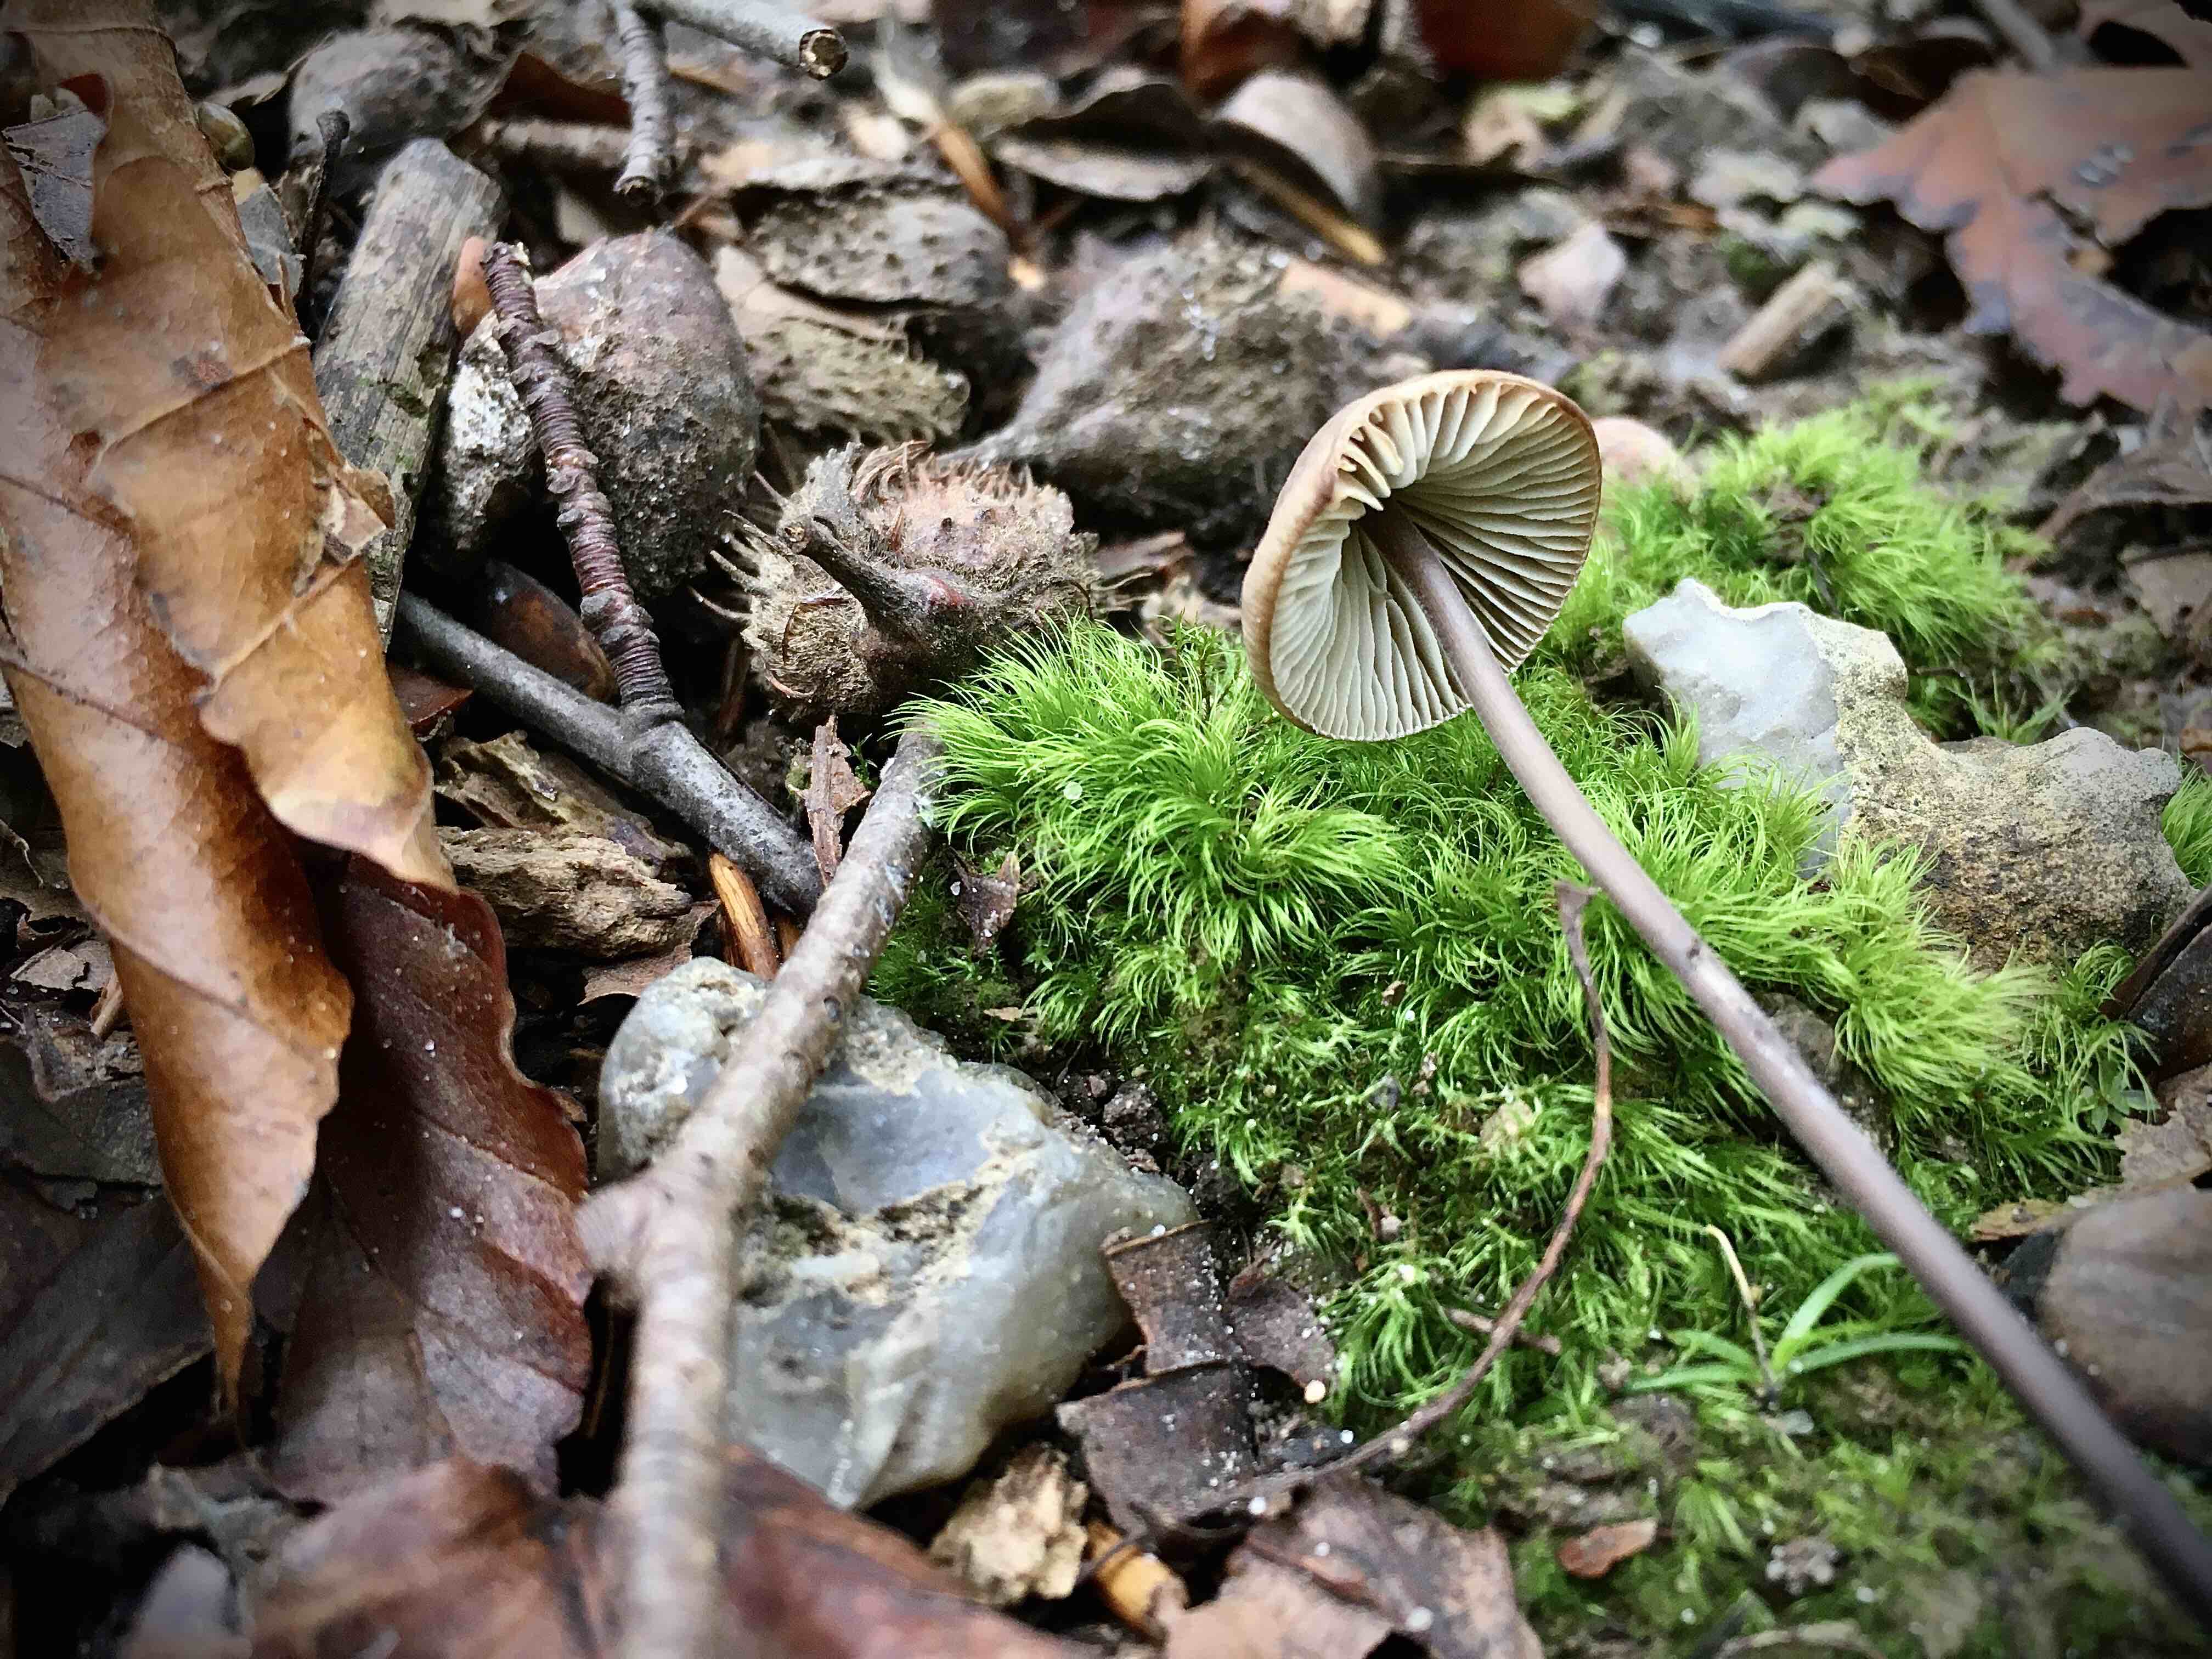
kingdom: Fungi
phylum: Basidiomycota
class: Agaricomycetes
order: Agaricales
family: Omphalotaceae
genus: Mycetinis
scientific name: Mycetinis alliaceus
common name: stor løghat
